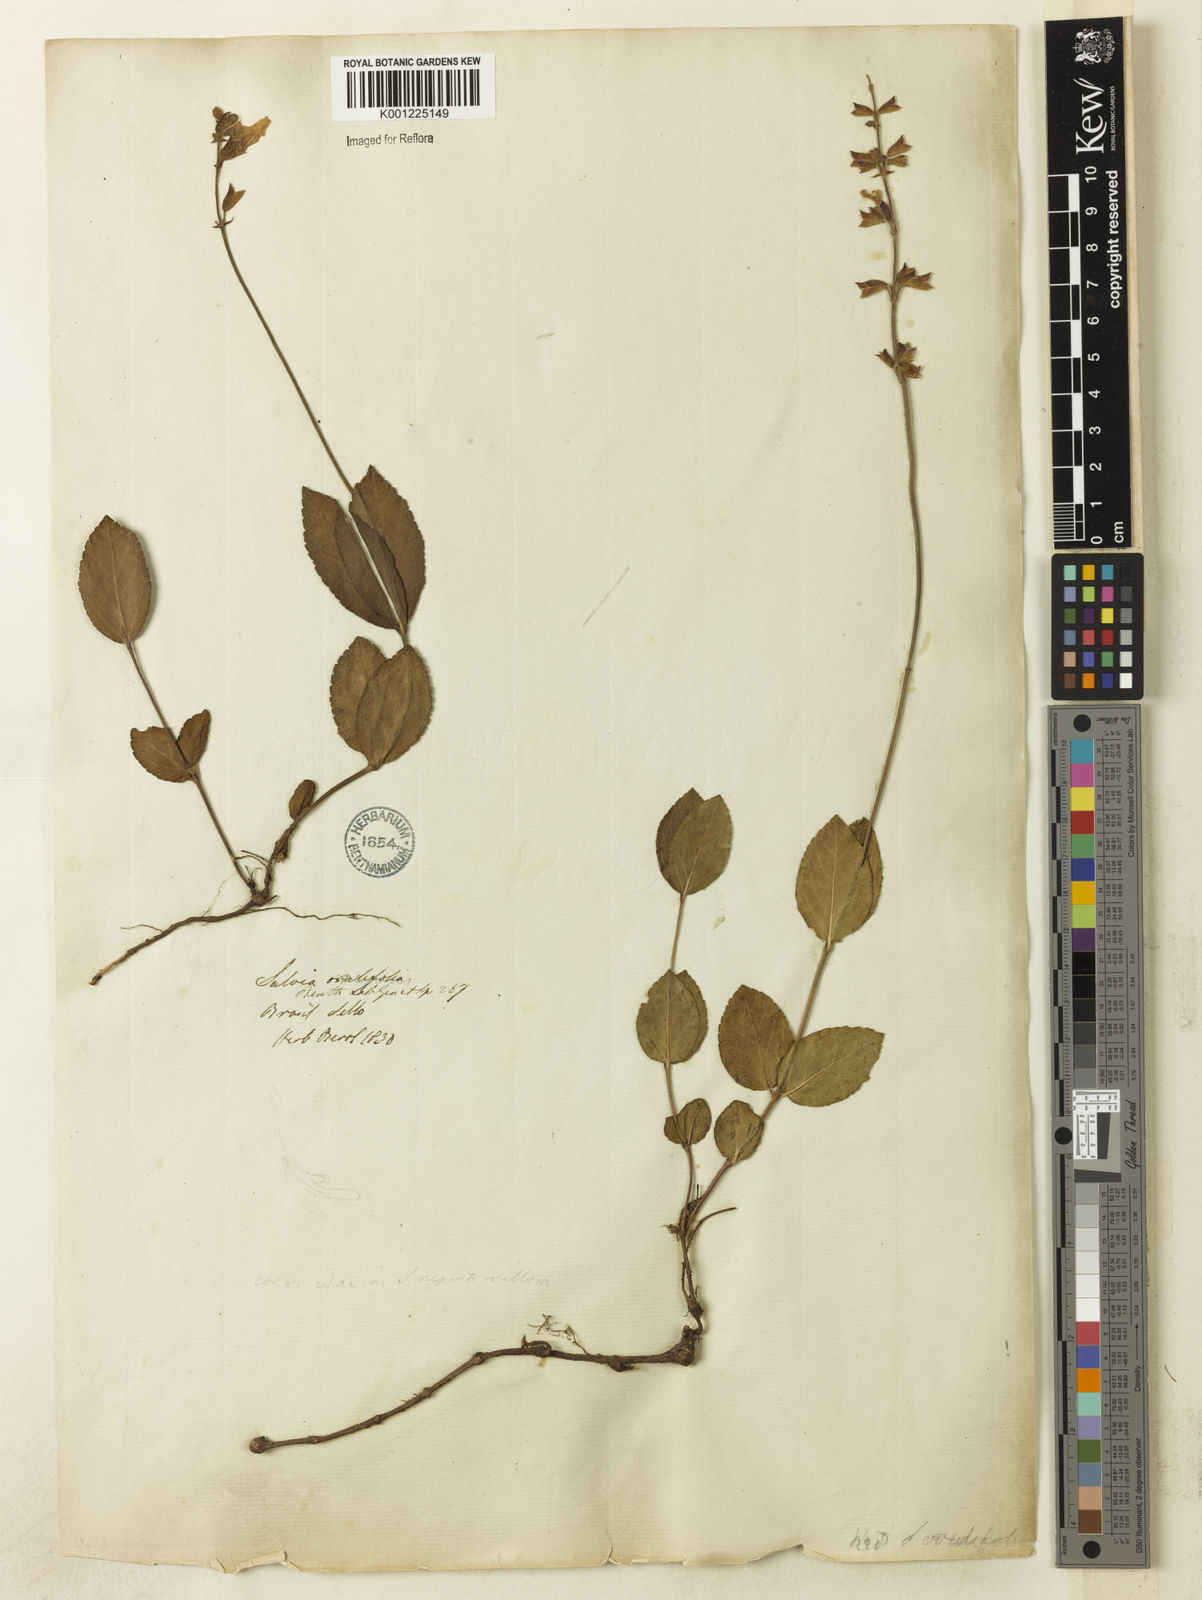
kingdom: Plantae
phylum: Tracheophyta
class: Magnoliopsida
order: Lamiales
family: Lamiaceae
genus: Salvia
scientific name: Salvia ovalifolia
